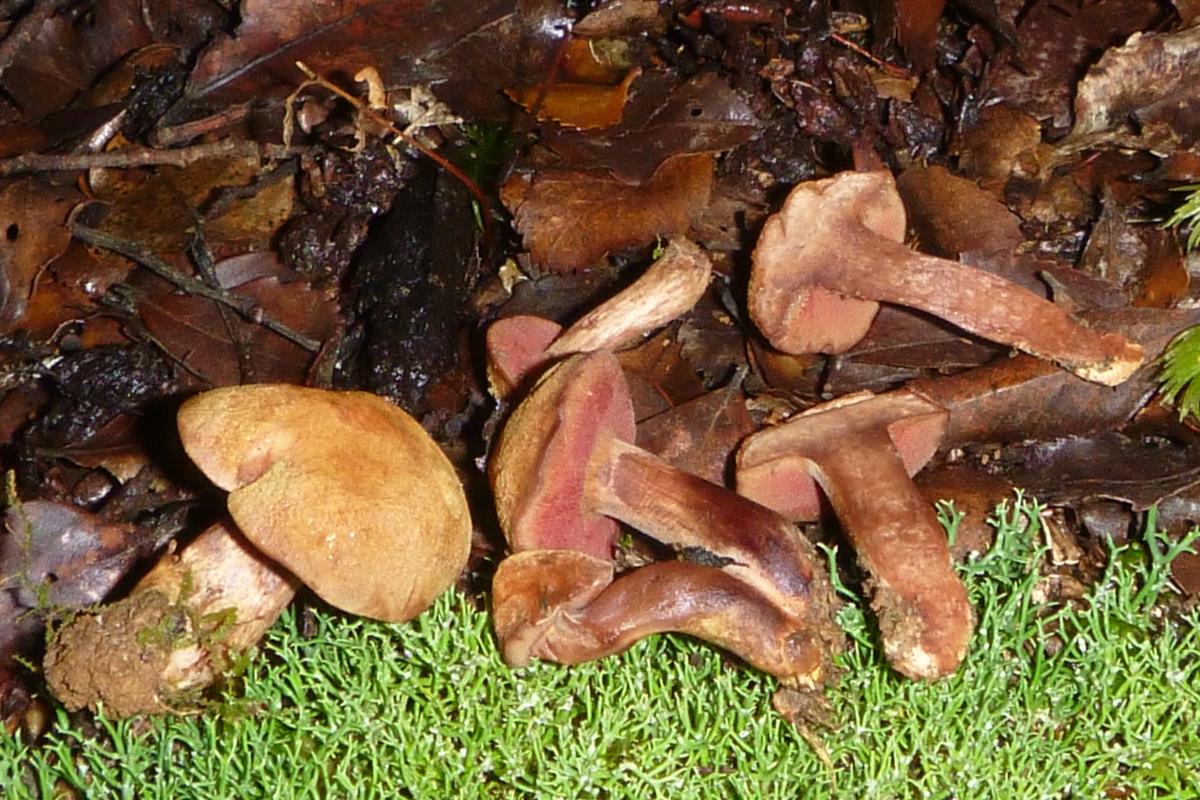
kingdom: Fungi
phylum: Basidiomycota
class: Agaricomycetes
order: Boletales
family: Boletaceae
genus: Chalciporus
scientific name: Chalciporus aurantiacus
